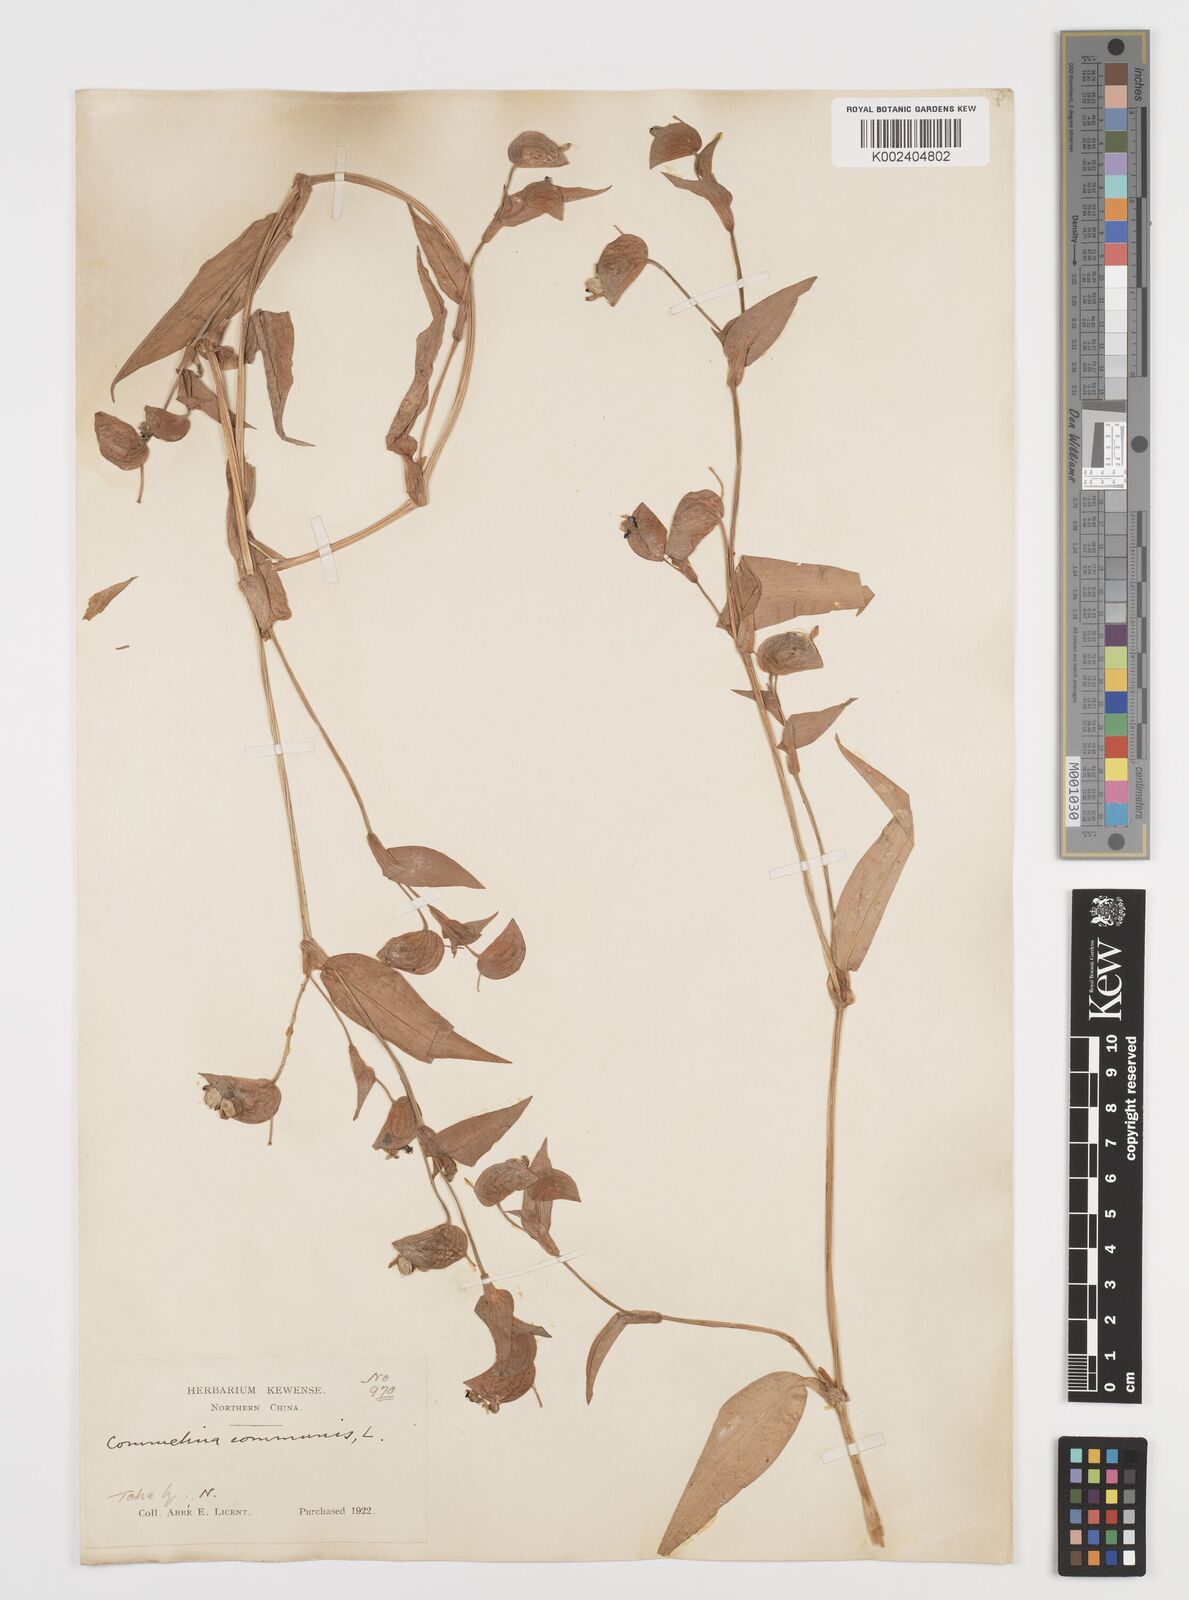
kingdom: Plantae
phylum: Tracheophyta
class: Liliopsida
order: Commelinales
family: Commelinaceae
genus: Commelina
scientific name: Commelina communis
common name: Asiatic dayflower
